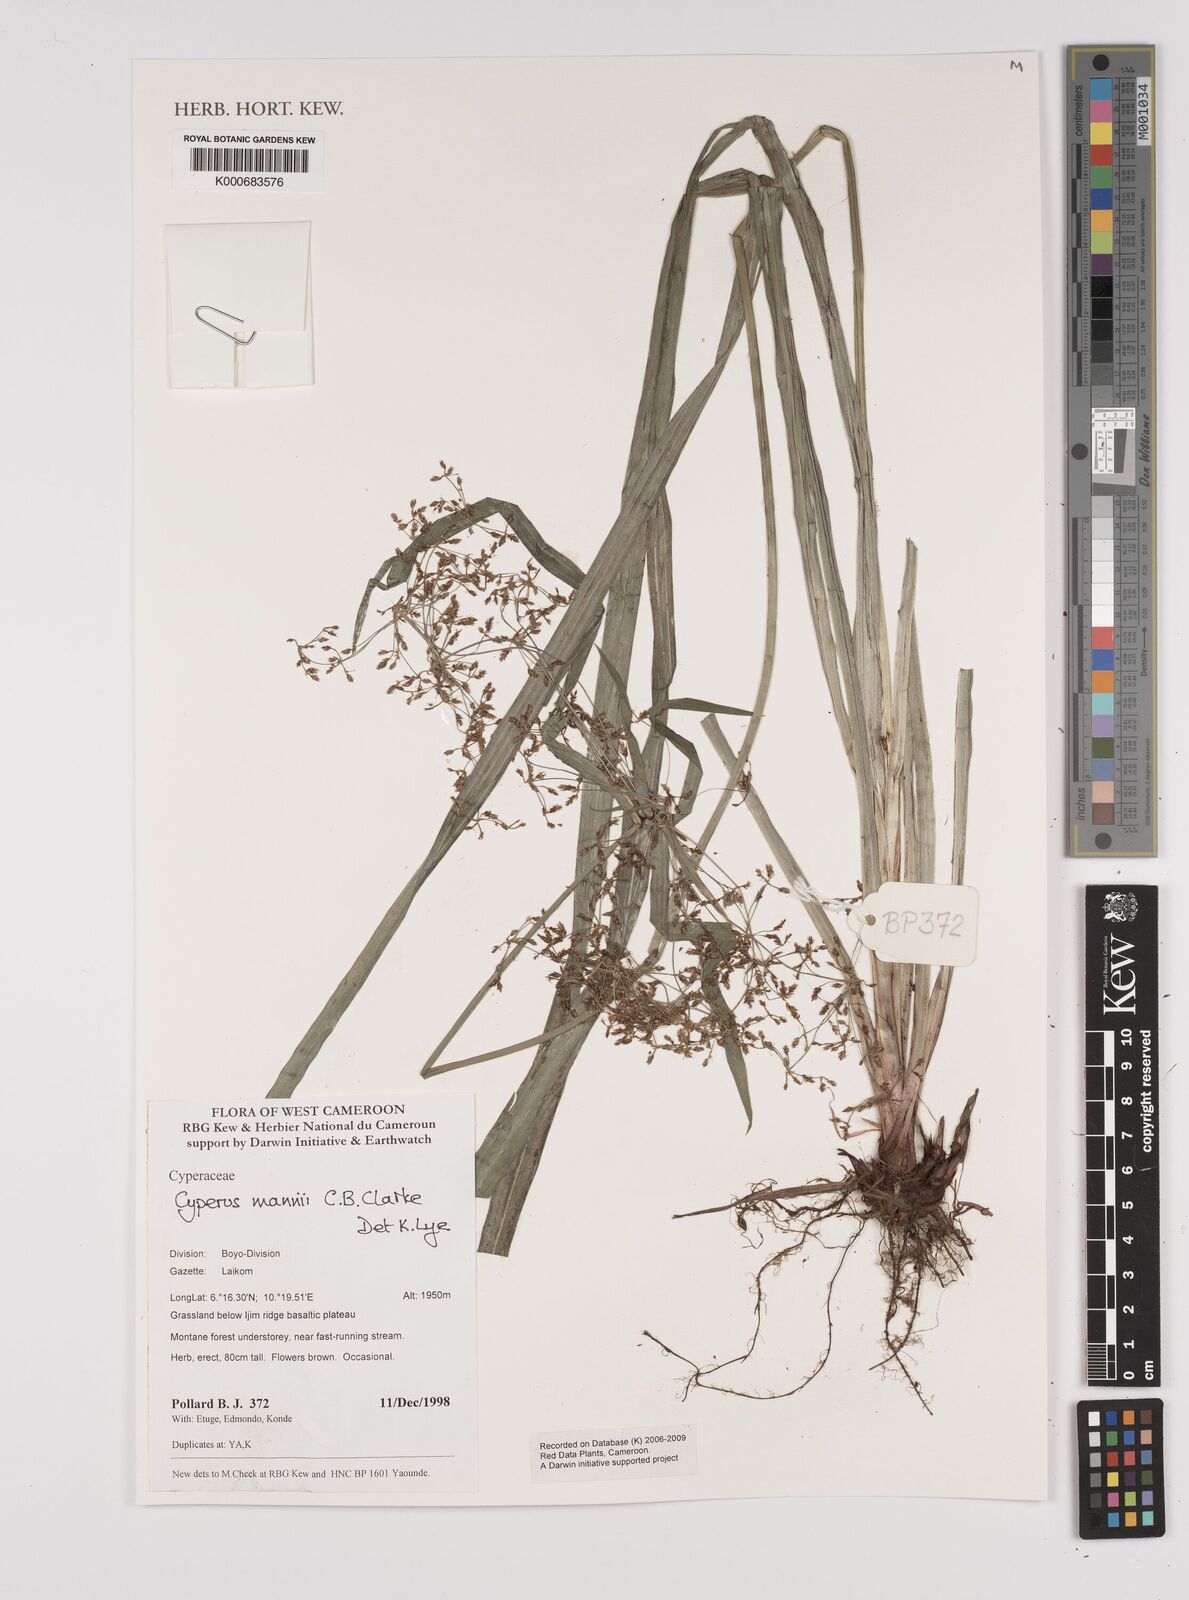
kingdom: Plantae
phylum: Tracheophyta
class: Liliopsida
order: Poales
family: Cyperaceae
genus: Cyperus
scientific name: Cyperus baronii
